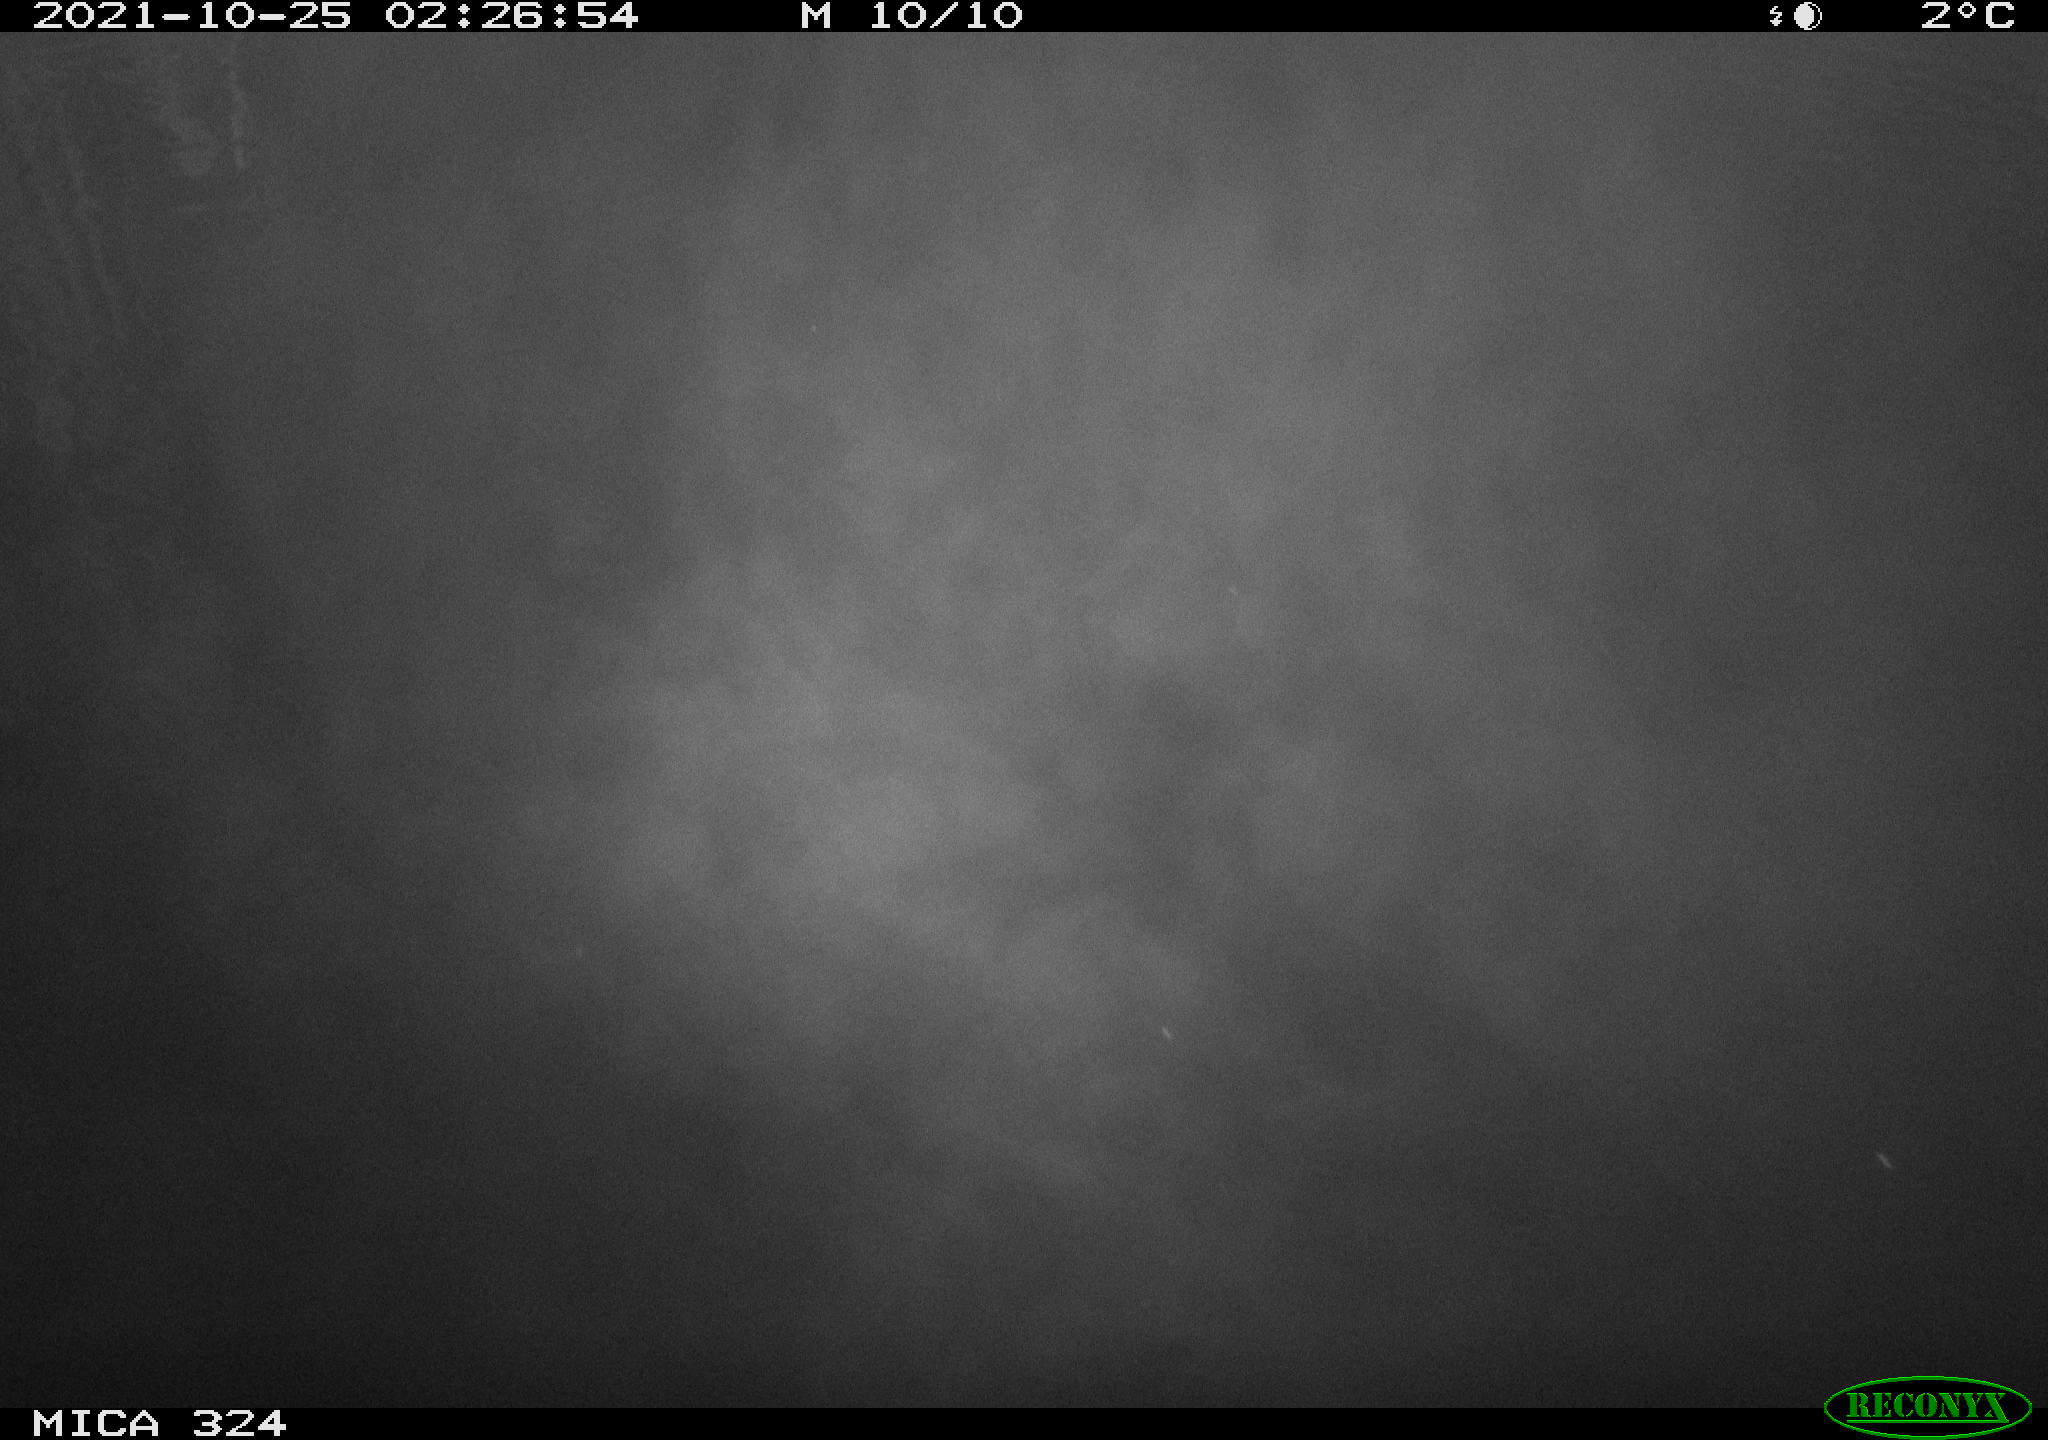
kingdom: Animalia
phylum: Chordata
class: Mammalia
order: Rodentia
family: Cricetidae
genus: Ondatra
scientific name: Ondatra zibethicus
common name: Muskrat
